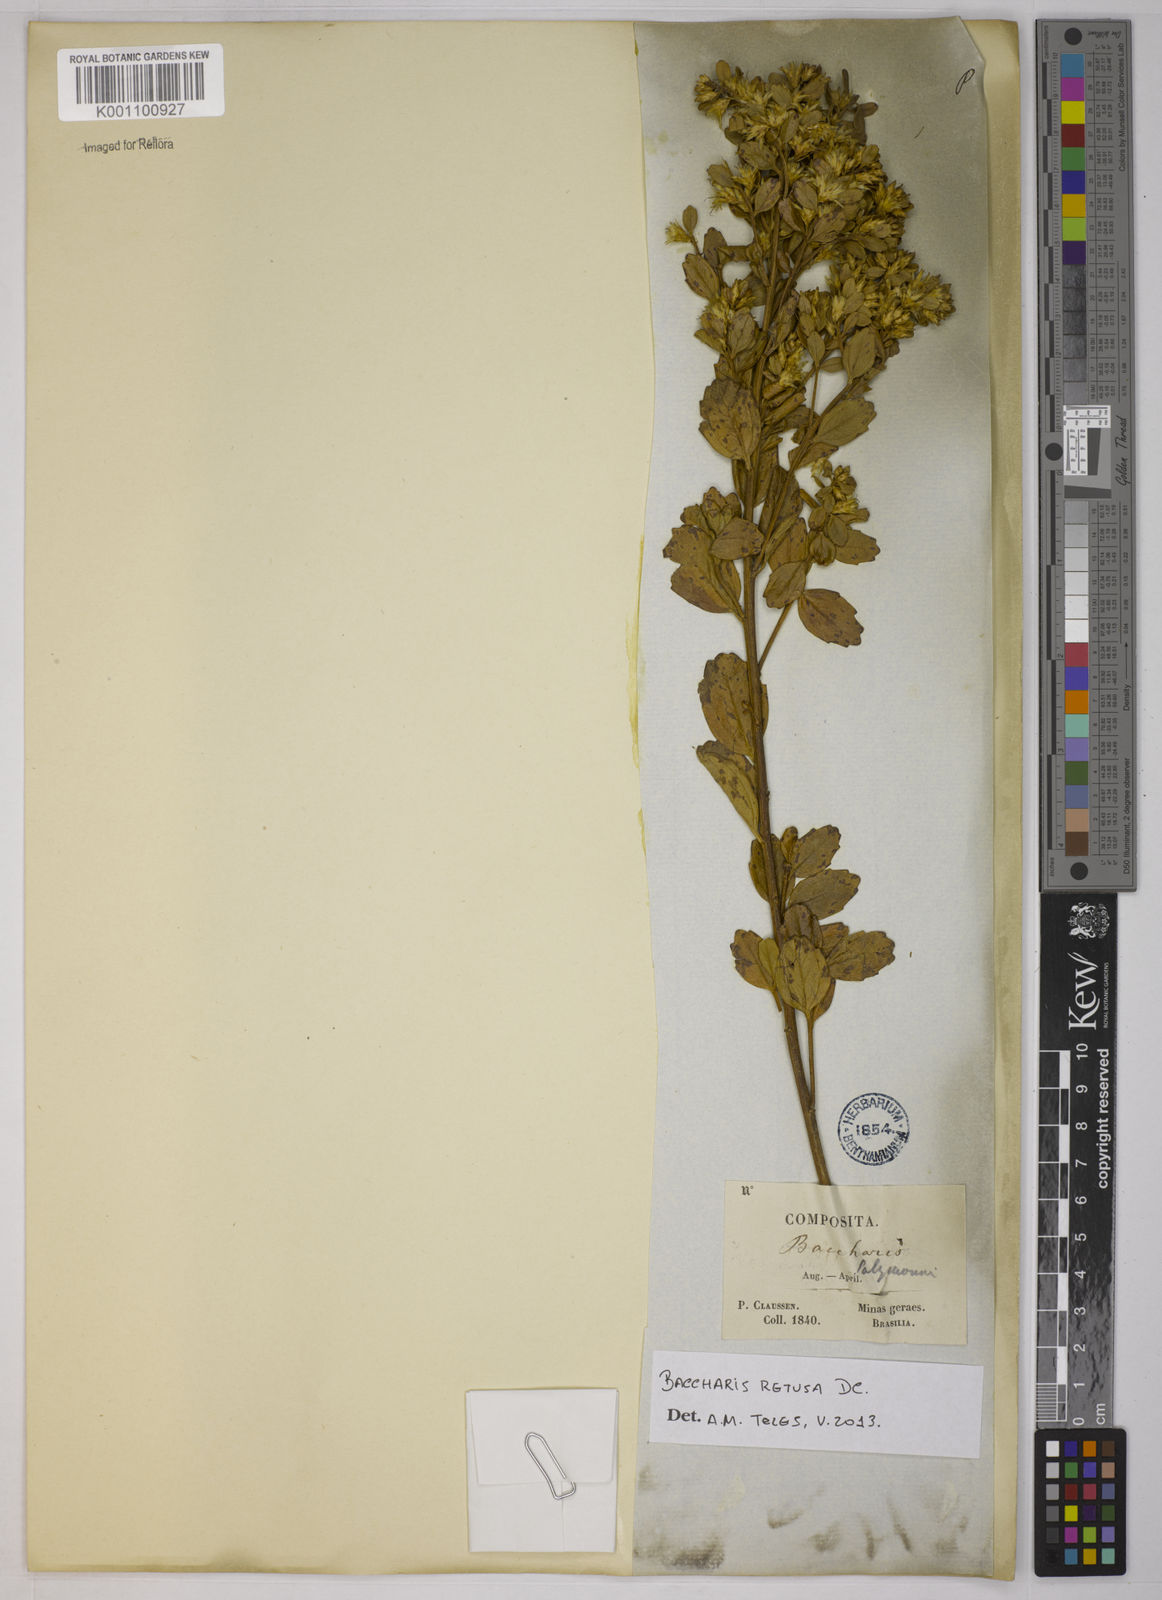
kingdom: Plantae
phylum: Tracheophyta
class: Magnoliopsida
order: Asterales
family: Asteraceae
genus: Baccharis
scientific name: Baccharis retusa
